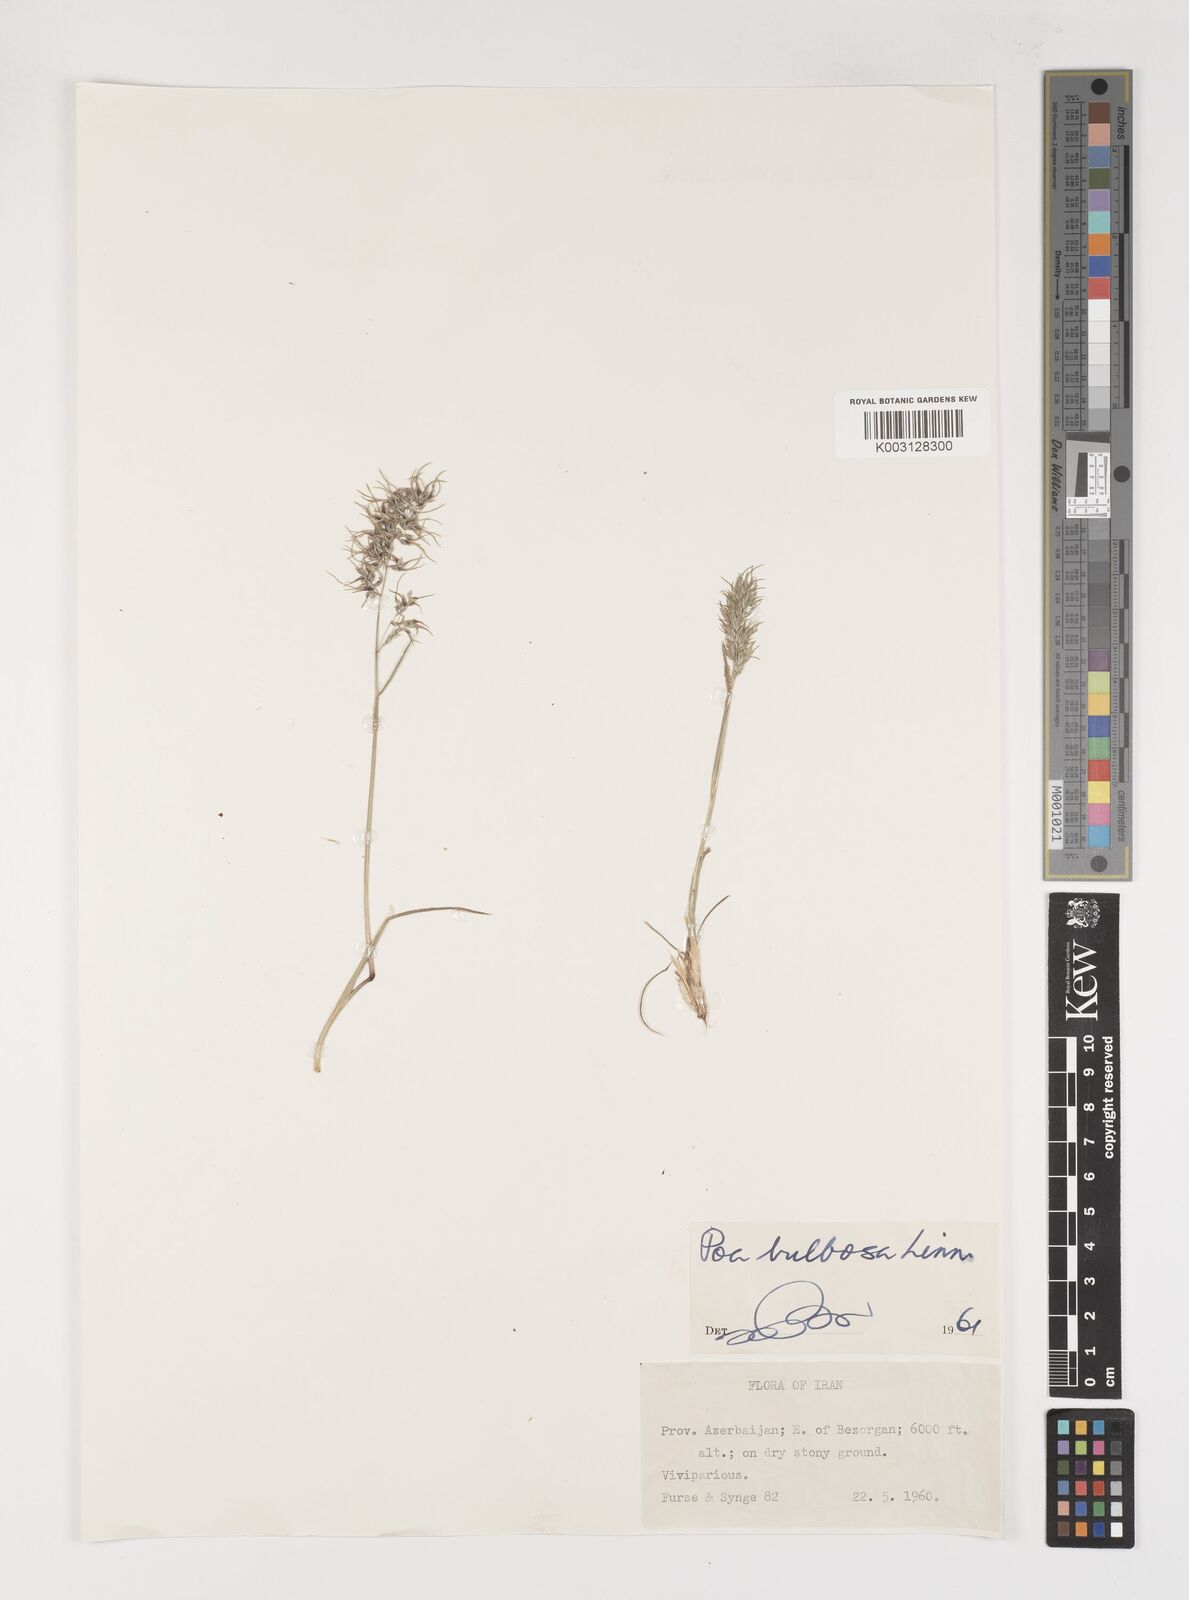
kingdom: Plantae
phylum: Tracheophyta
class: Liliopsida
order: Poales
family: Poaceae
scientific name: Poaceae
